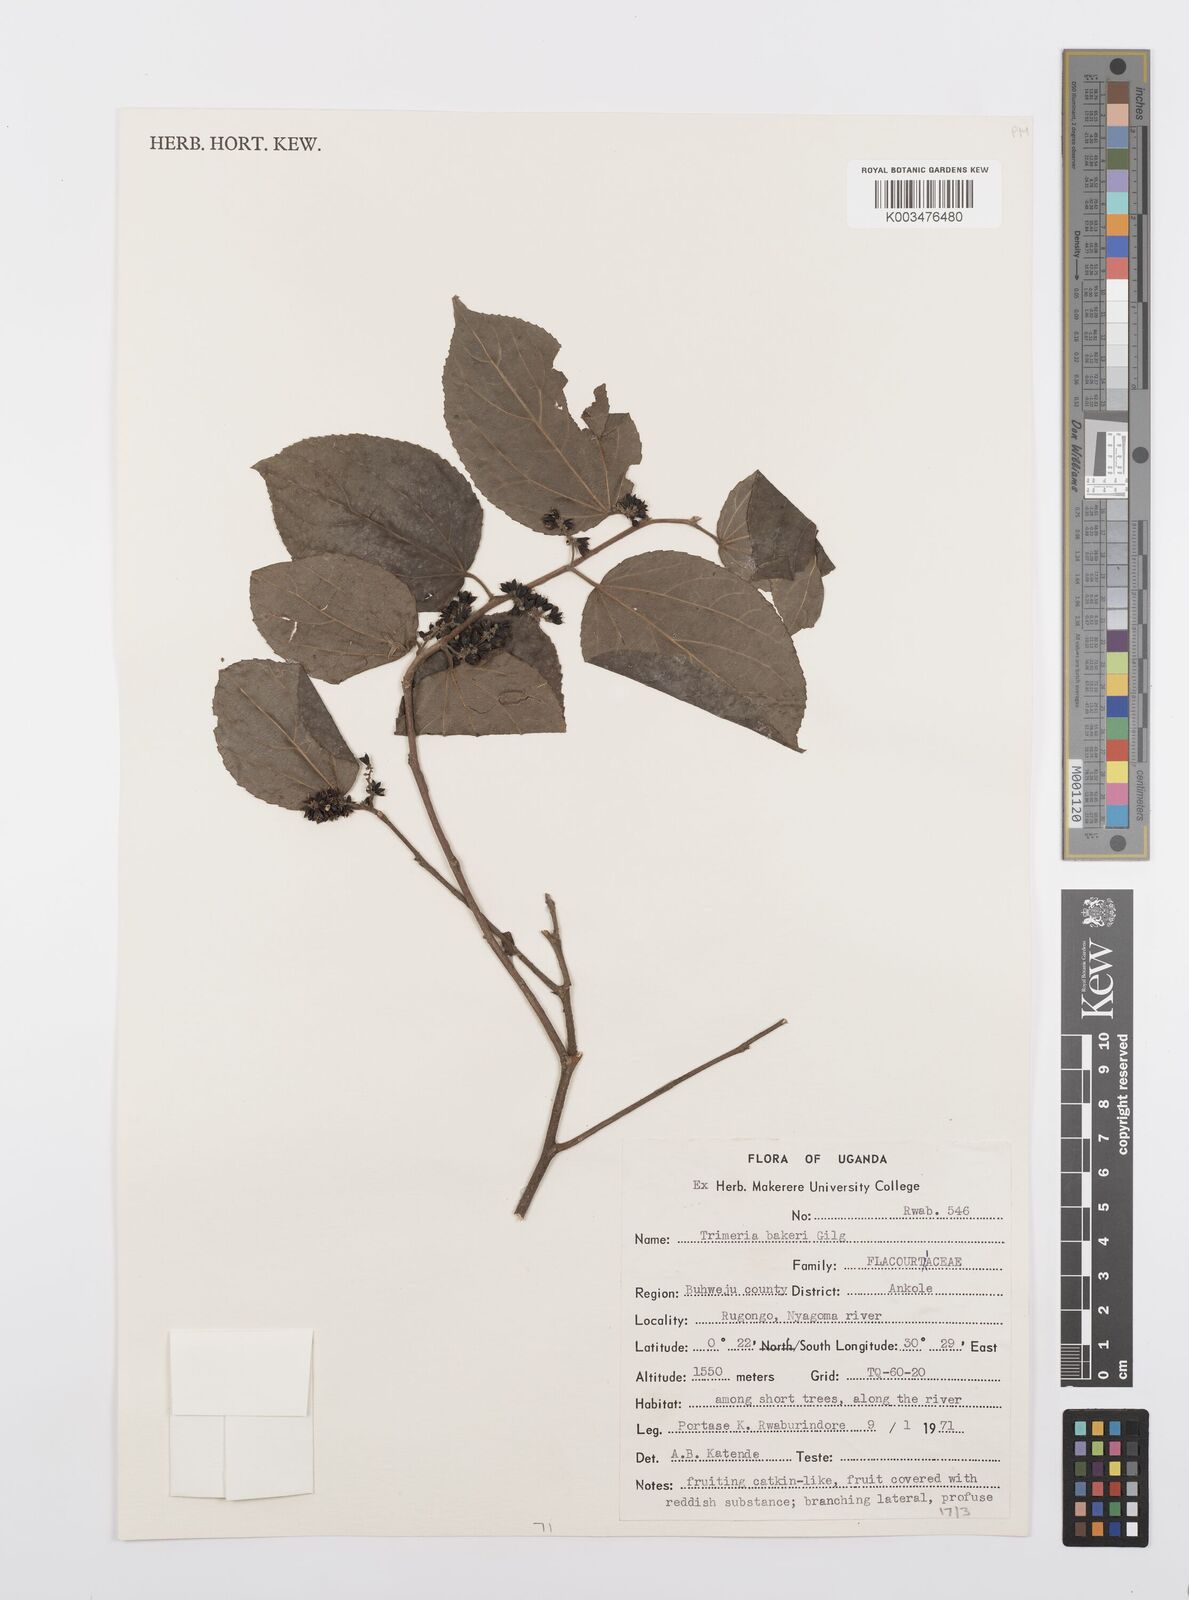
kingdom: Plantae
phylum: Tracheophyta
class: Magnoliopsida
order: Malpighiales
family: Salicaceae
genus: Trimeria
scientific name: Trimeria grandifolia
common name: Wild mulberry
